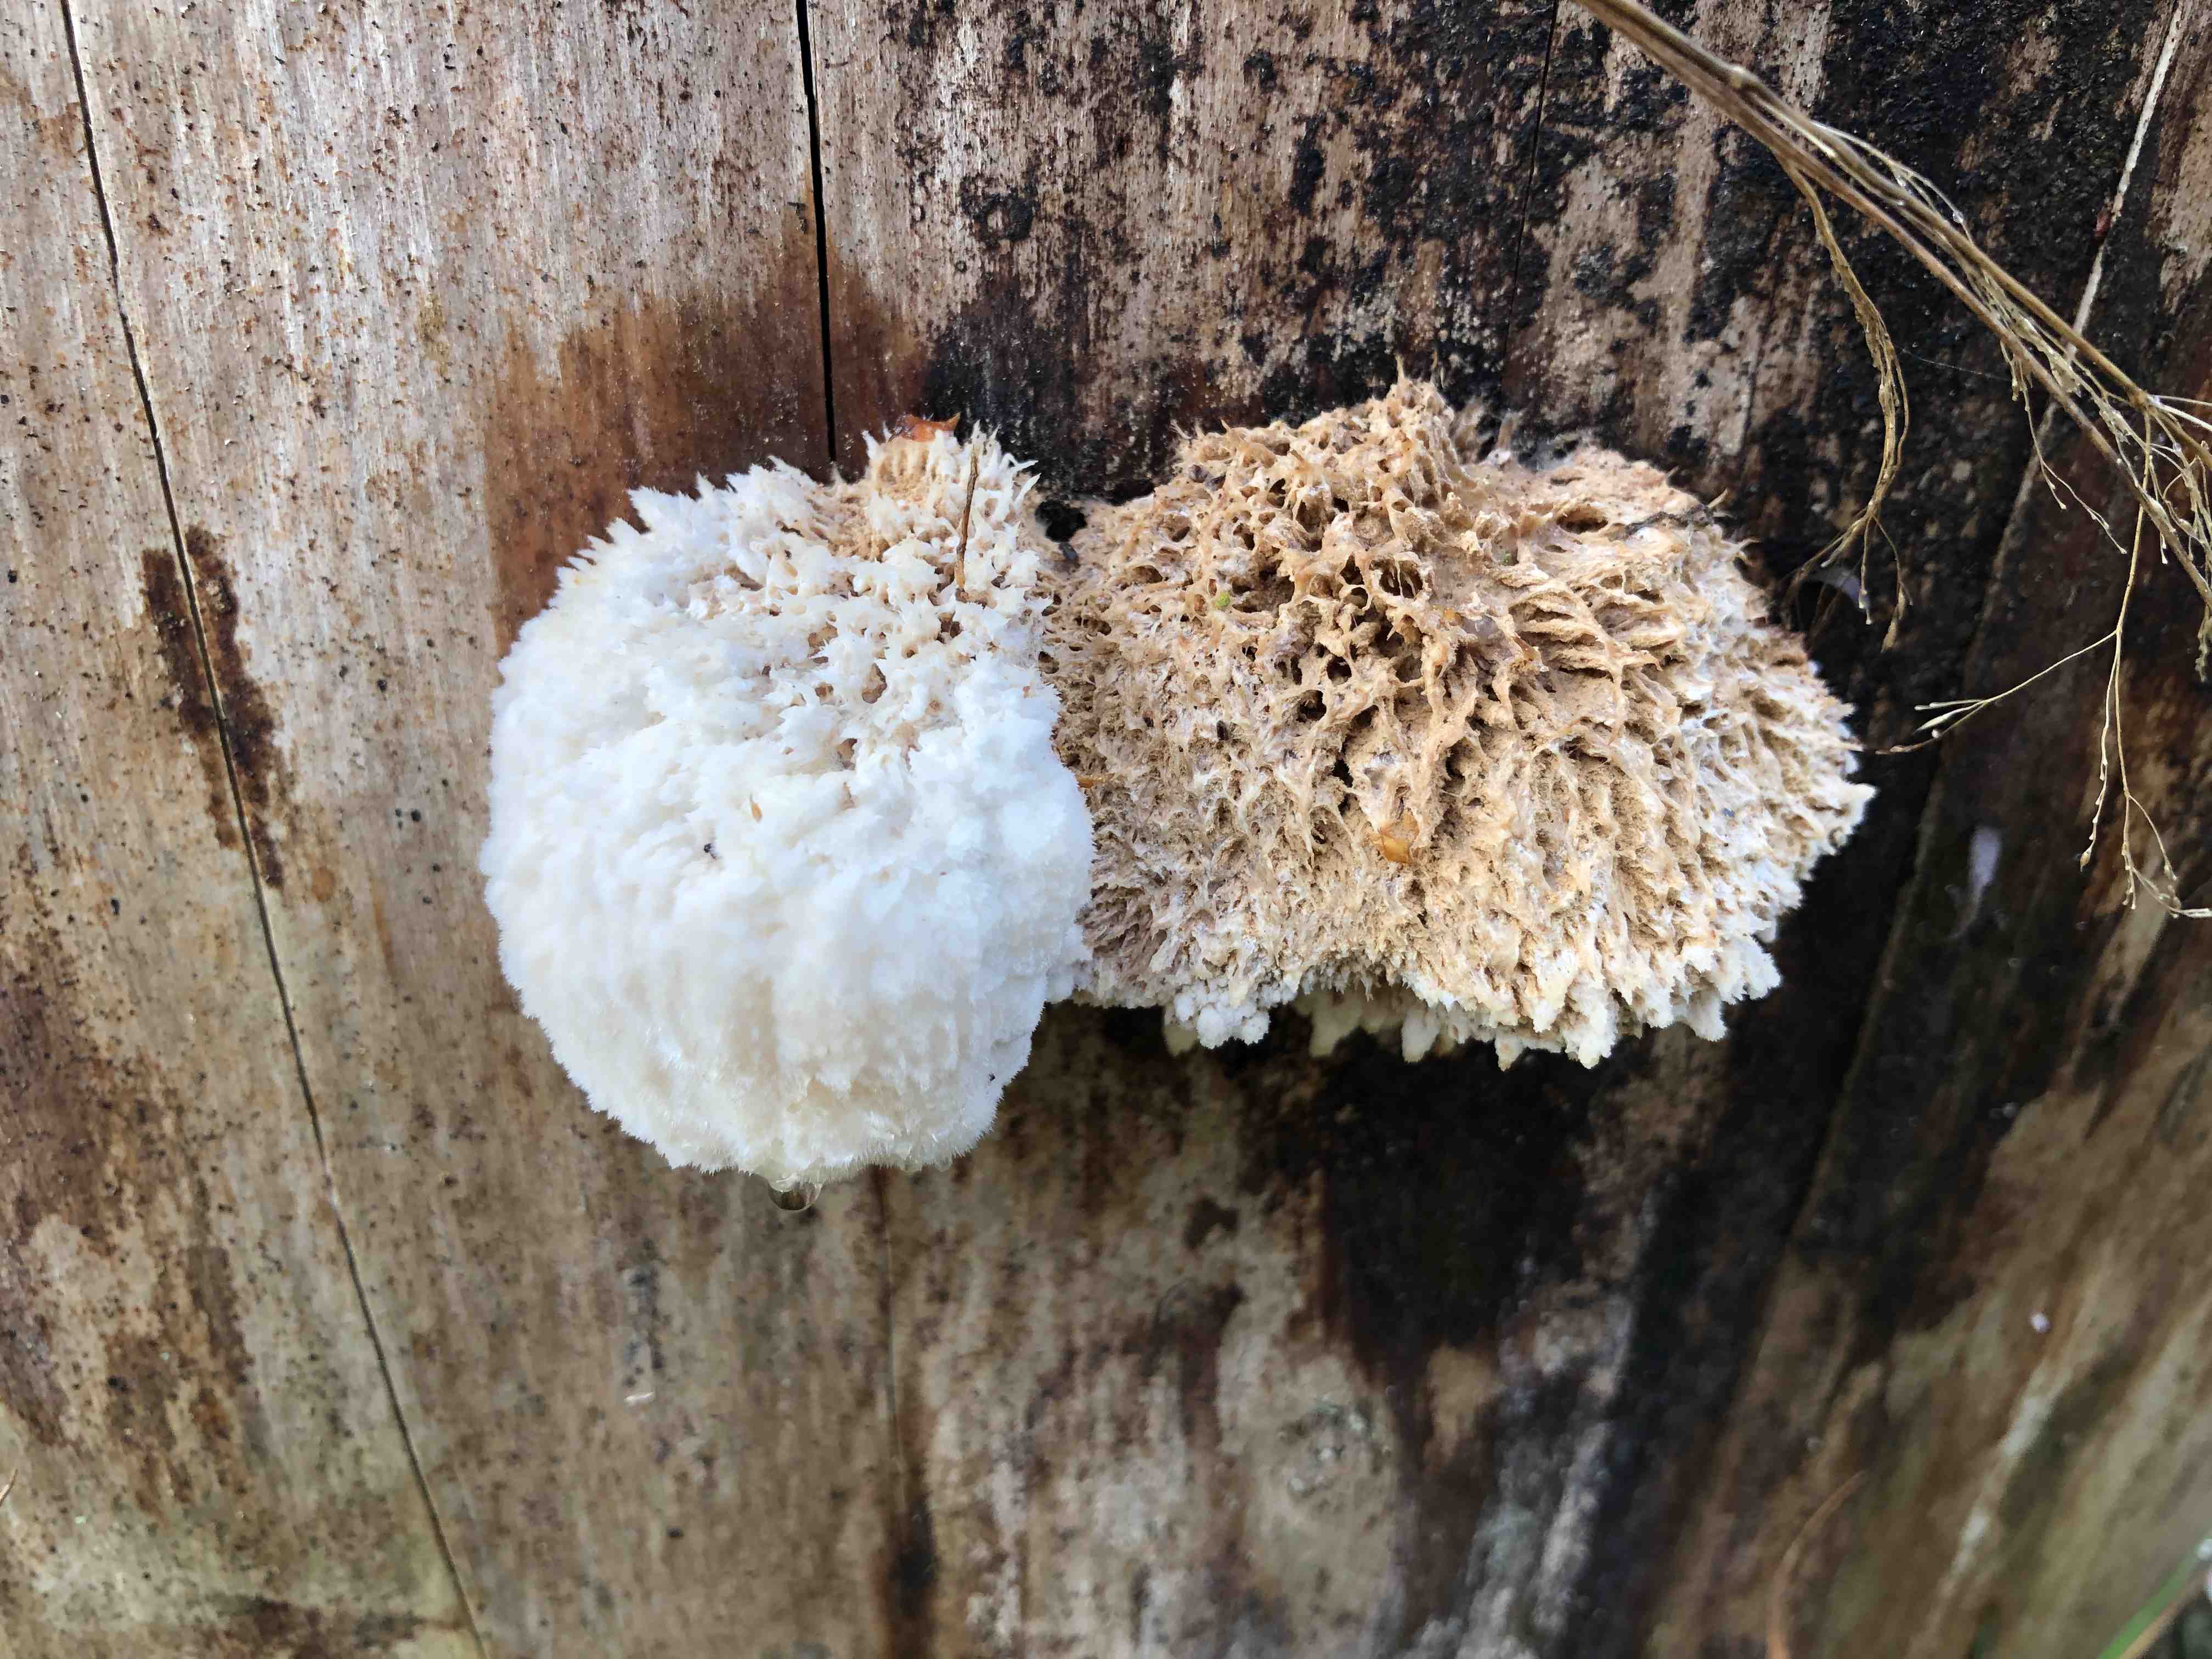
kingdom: Fungi
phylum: Basidiomycota
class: Agaricomycetes
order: Polyporales
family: Dacryobolaceae
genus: Postia
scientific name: Postia ptychogaster
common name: støvende kødporesvamp
